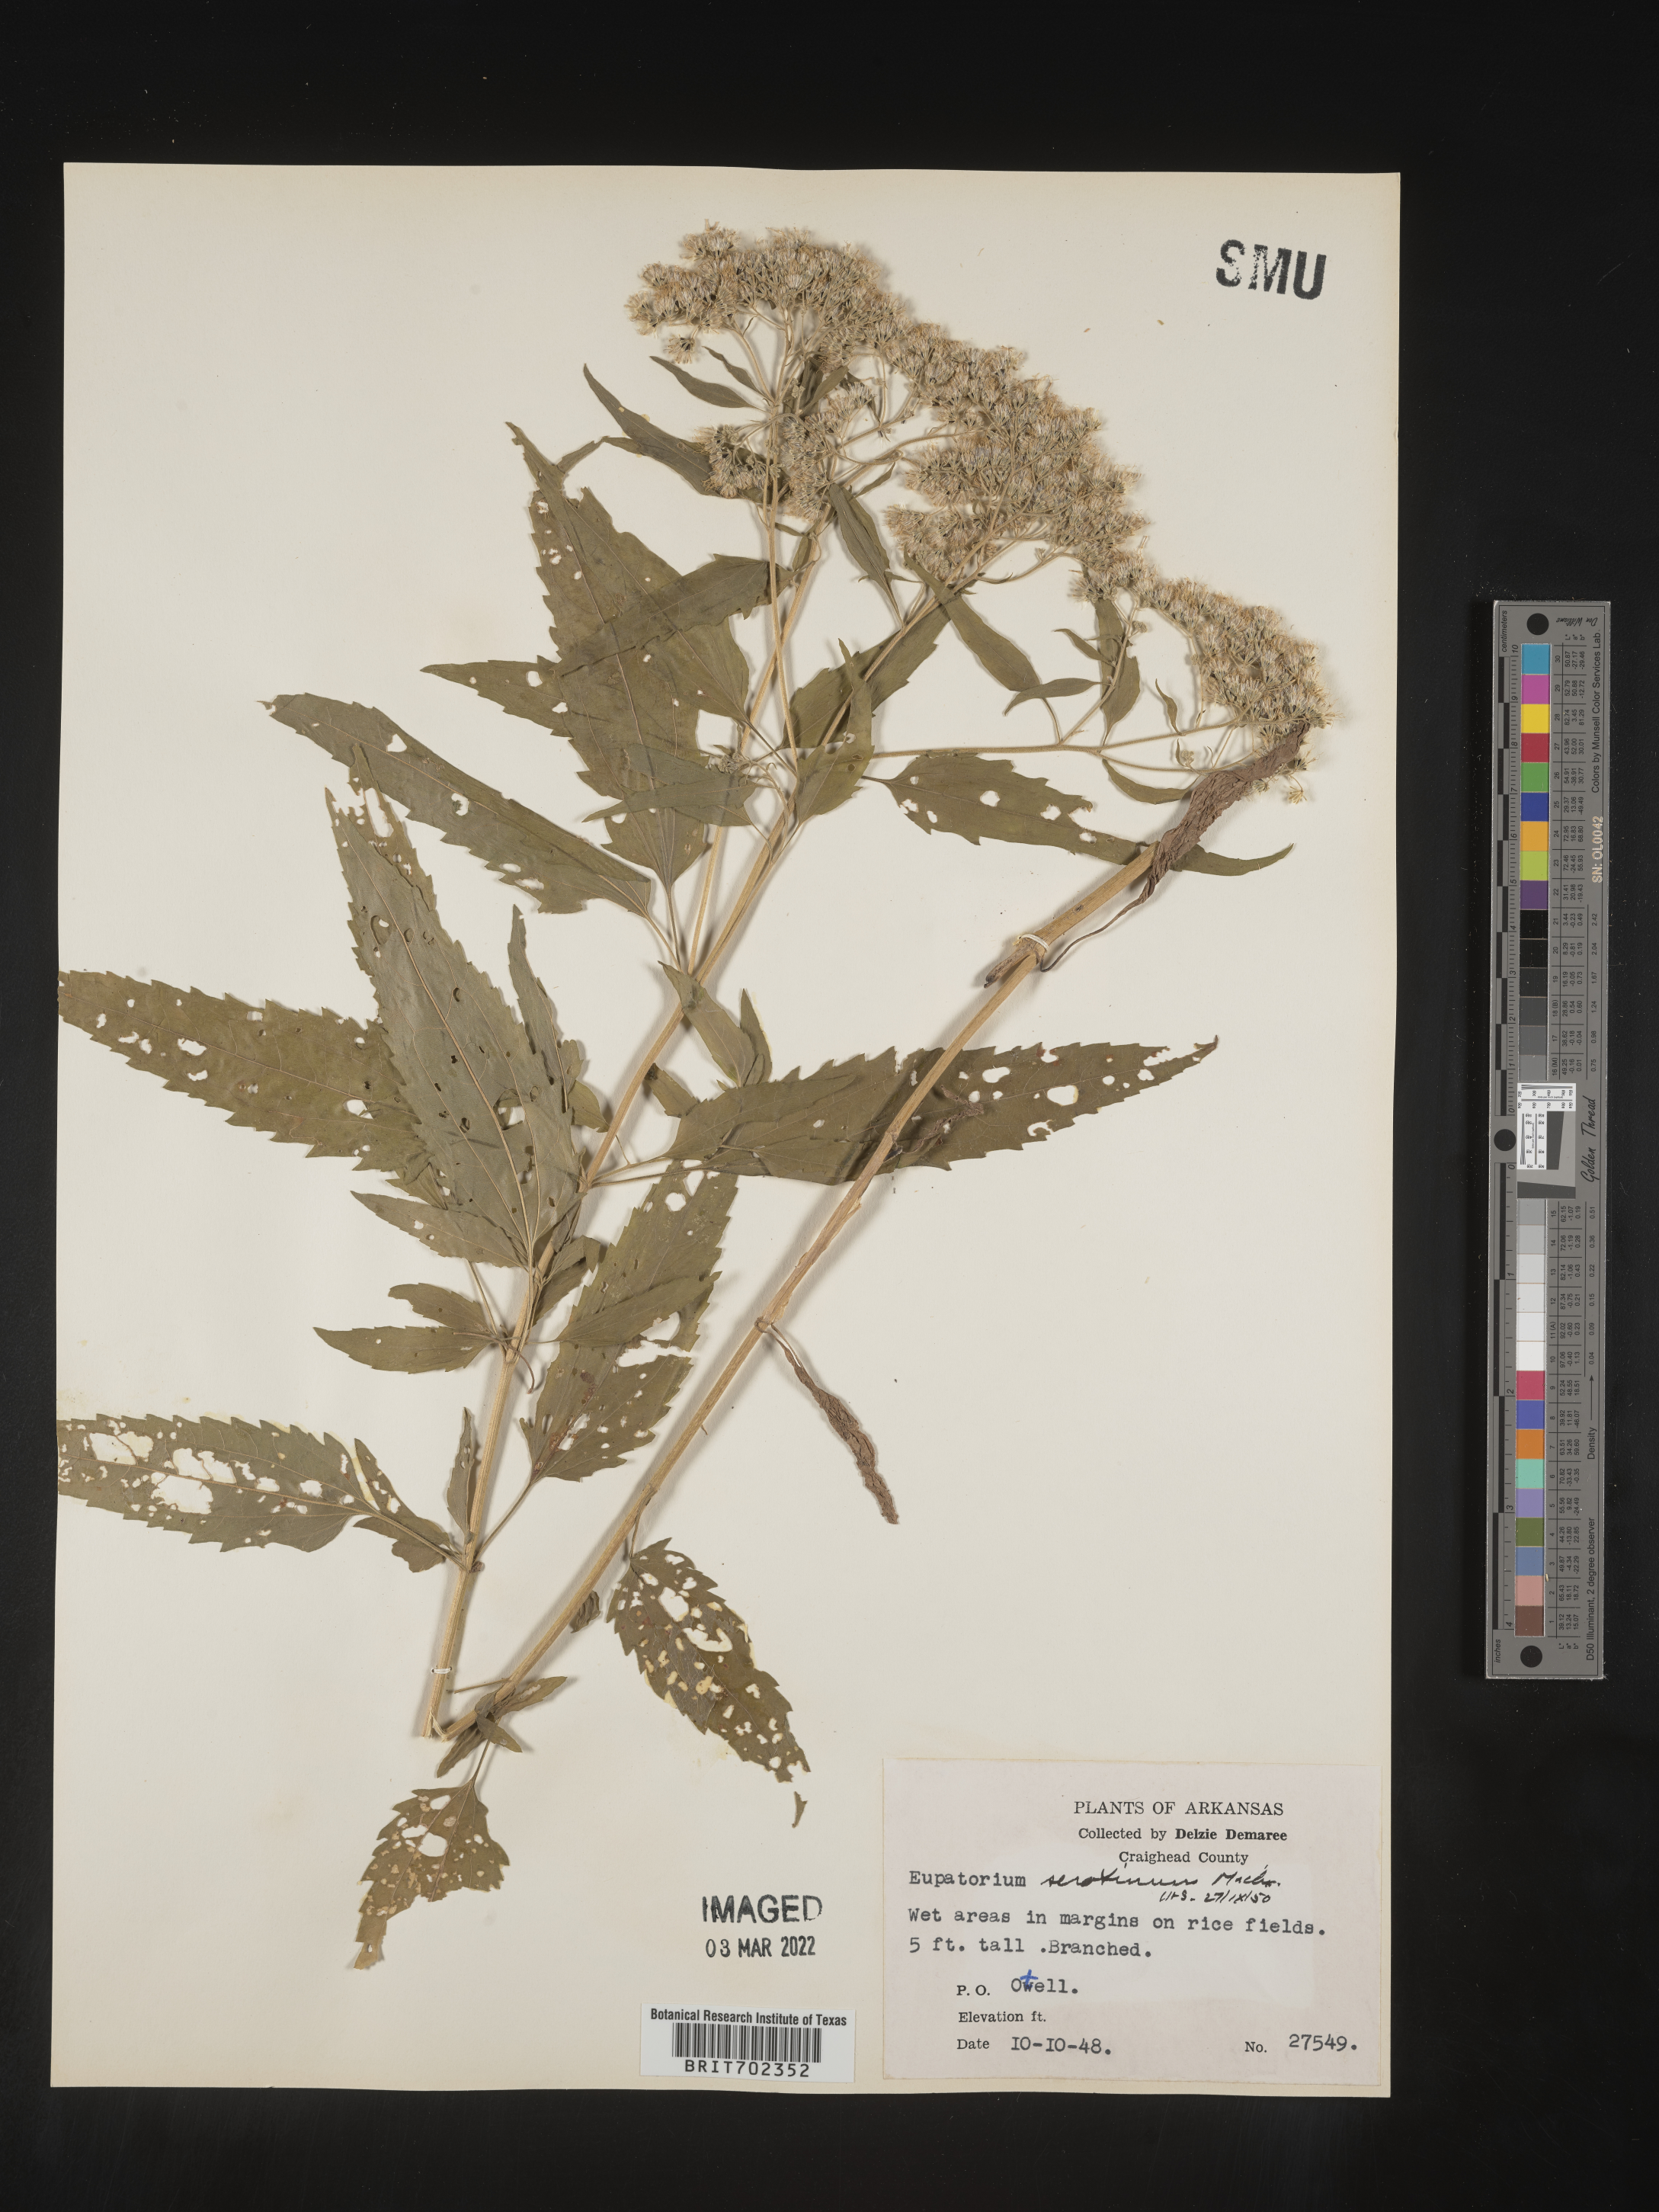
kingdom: Plantae
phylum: Tracheophyta
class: Magnoliopsida
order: Asterales
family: Asteraceae
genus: Eupatorium
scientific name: Eupatorium serotinum
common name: Late boneset
